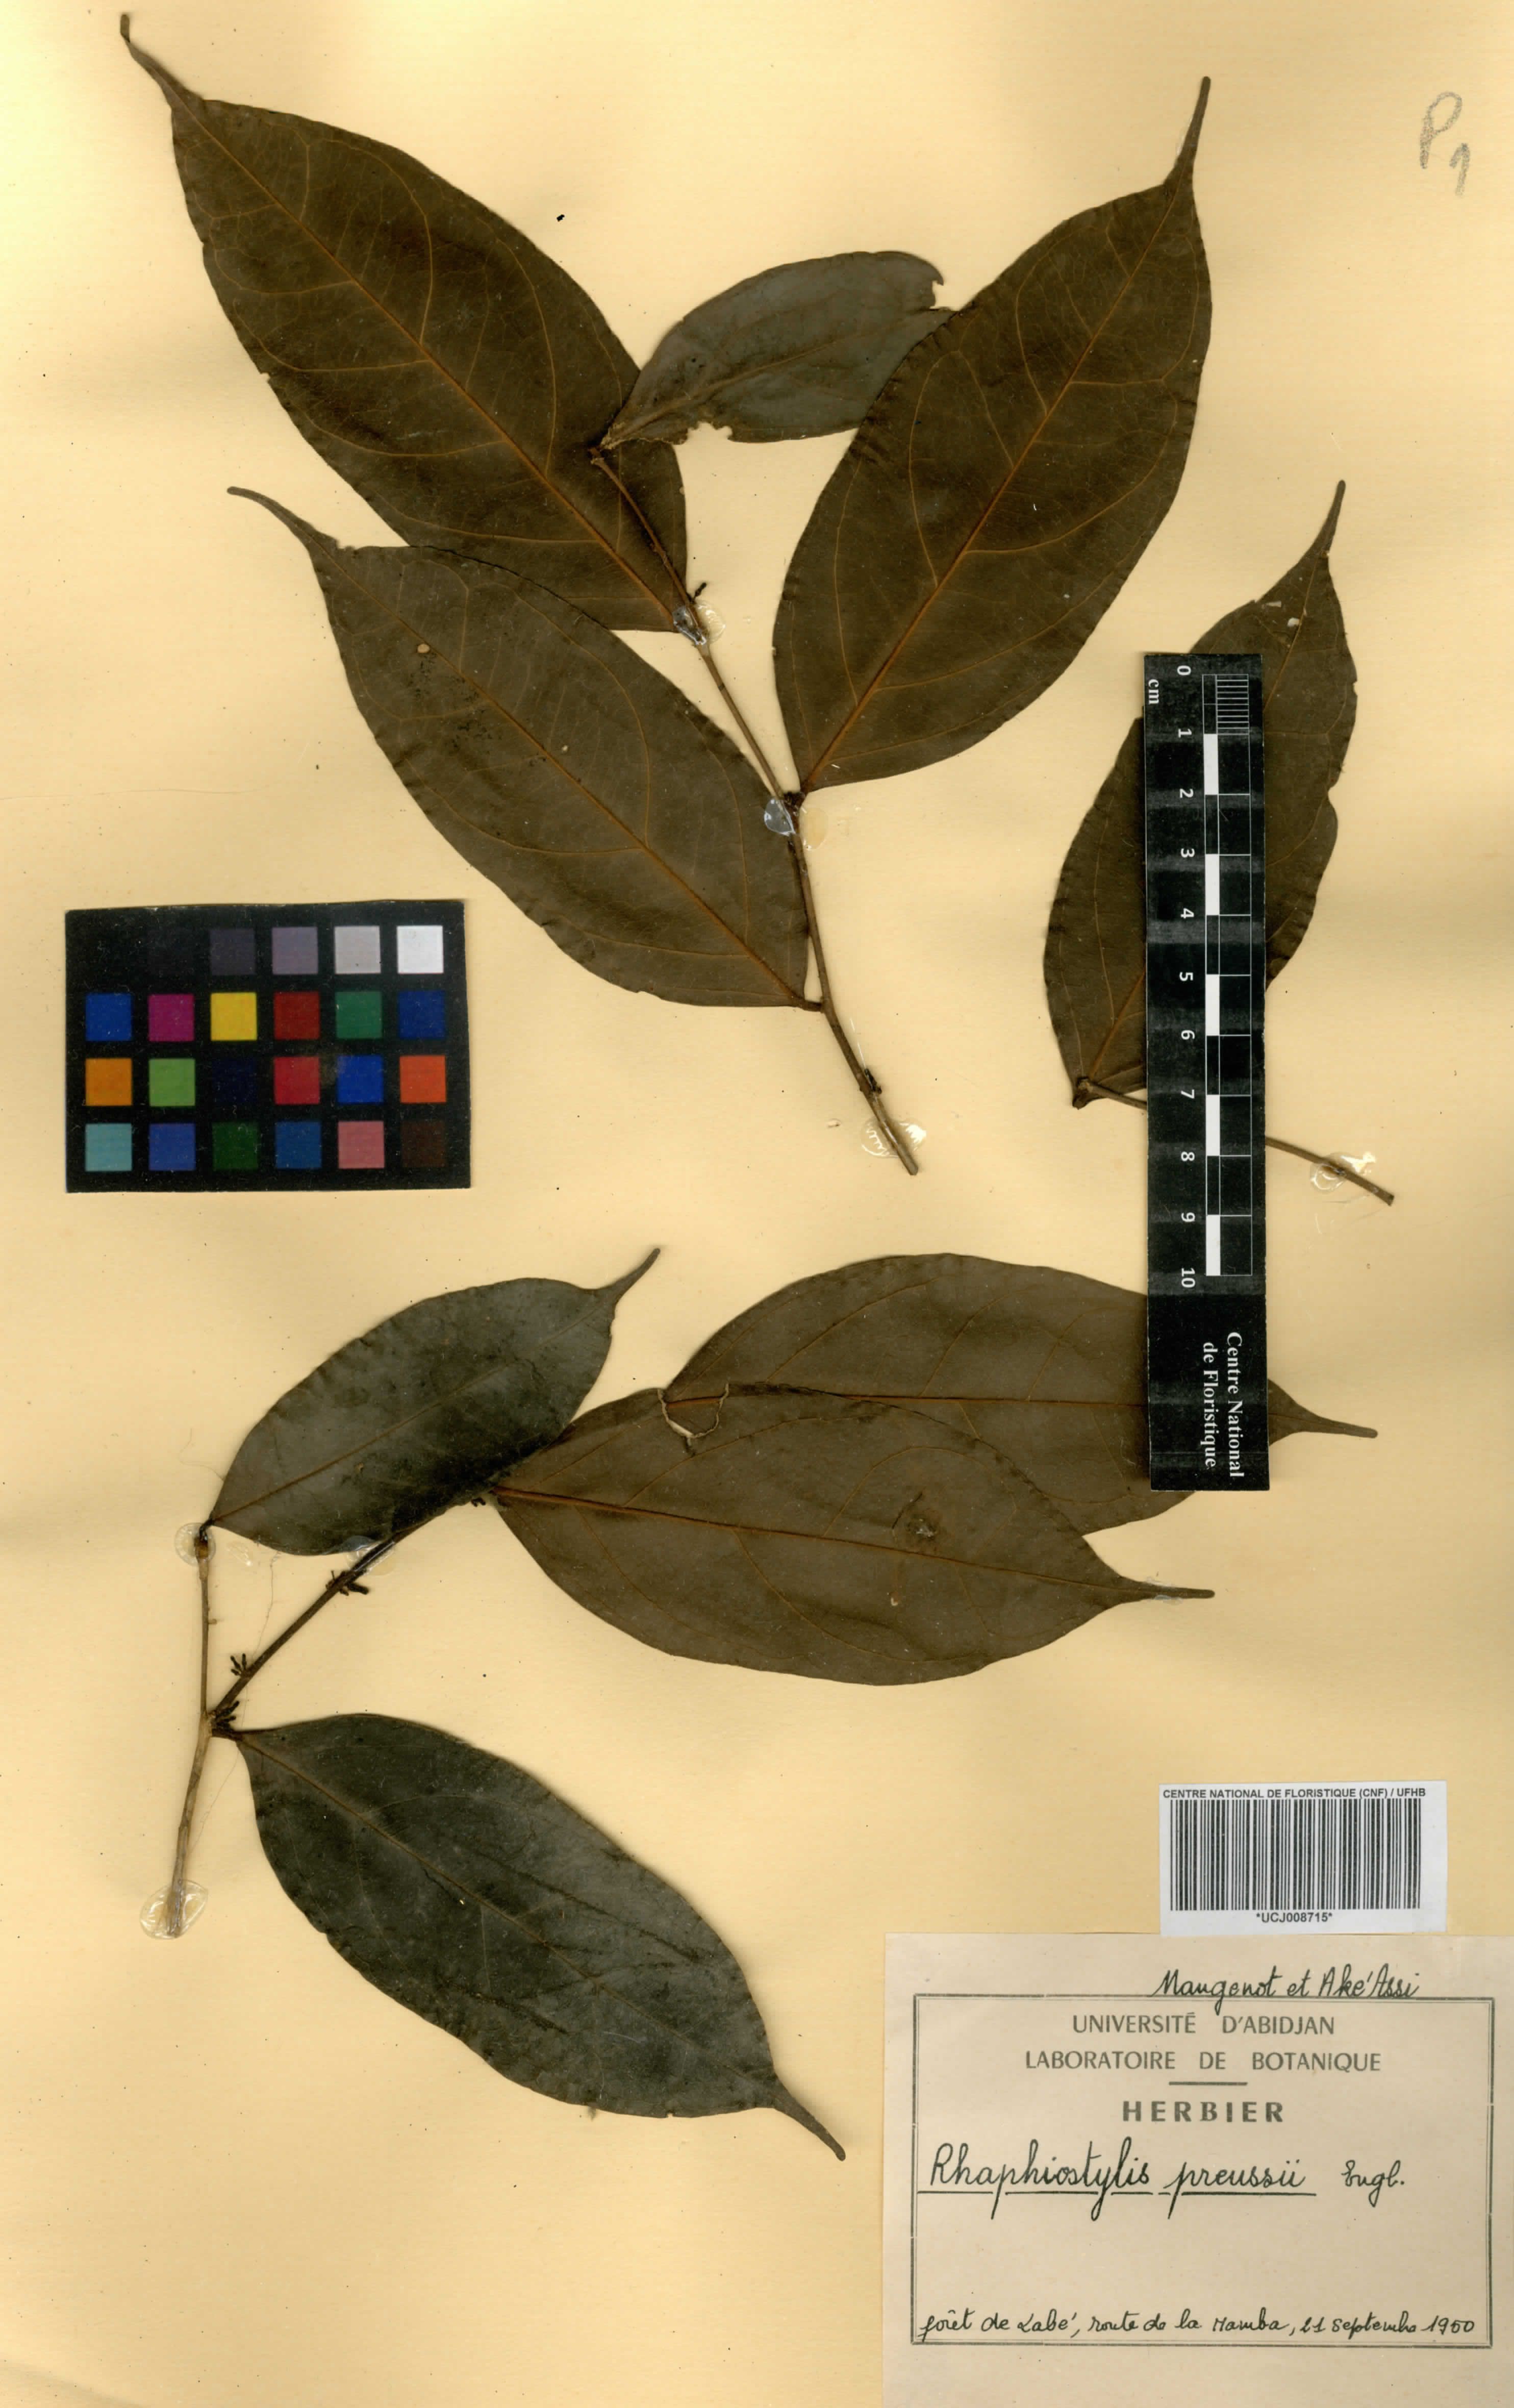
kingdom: Plantae
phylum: Tracheophyta
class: Magnoliopsida
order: Metteniusales
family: Metteniusaceae
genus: Rhaphiostylis
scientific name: Rhaphiostylis preussii
